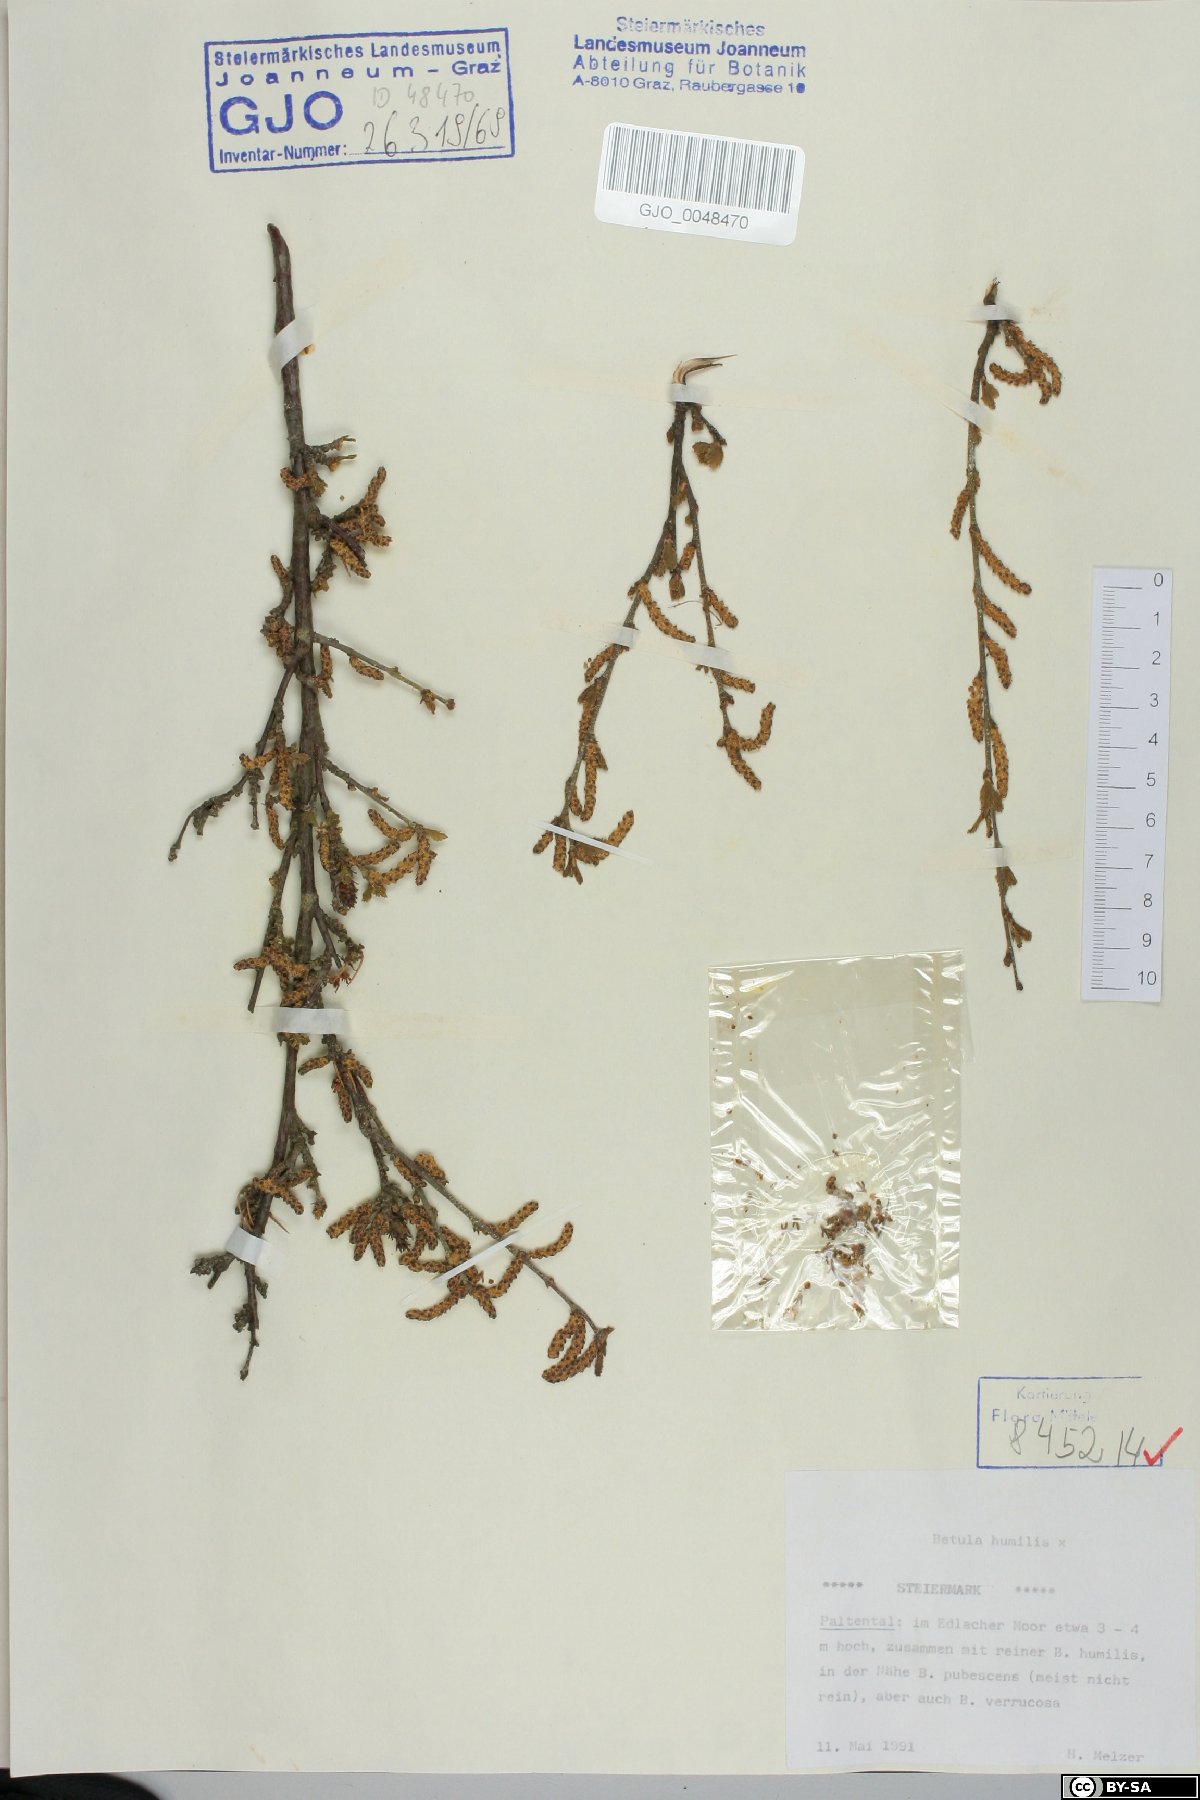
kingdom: Plantae
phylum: Tracheophyta
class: Magnoliopsida
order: Fagales
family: Betulaceae
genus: Betula
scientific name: Betula humilis
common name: Shrubby birch
